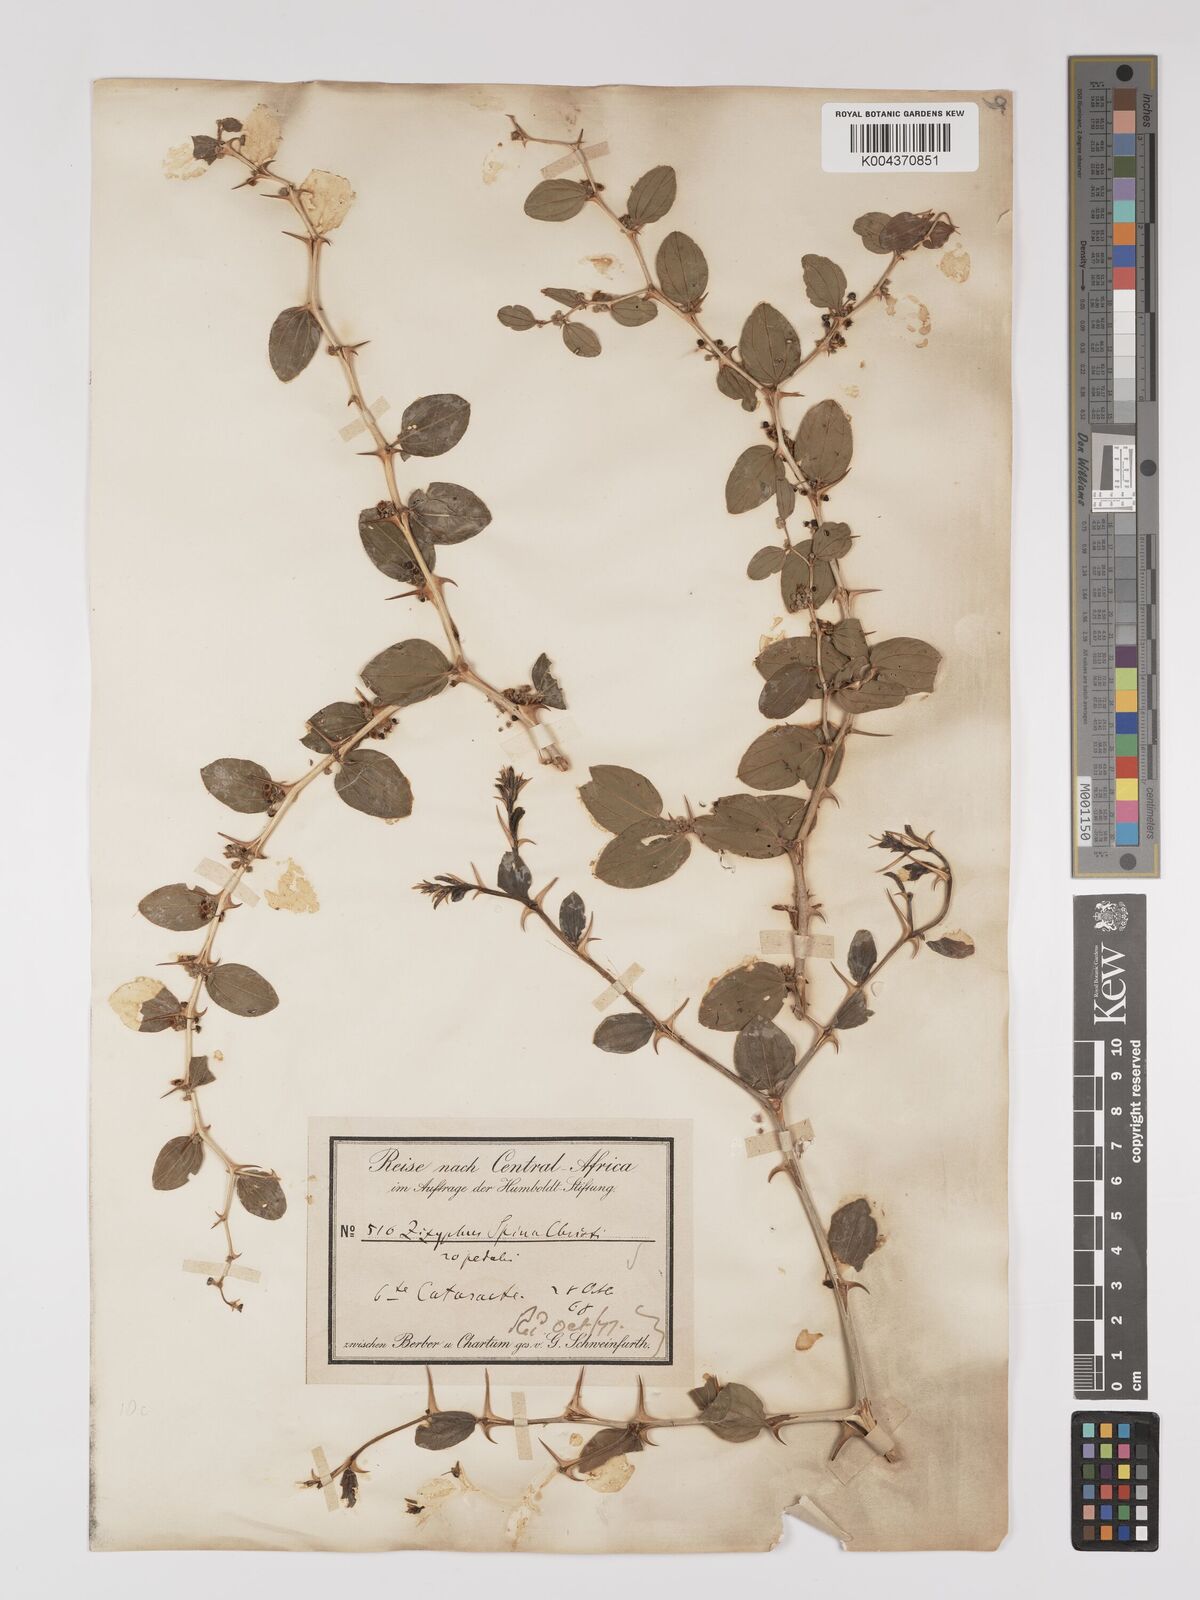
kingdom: Plantae
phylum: Tracheophyta
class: Magnoliopsida
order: Rosales
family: Rhamnaceae
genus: Ziziphus
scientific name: Ziziphus spina-christi
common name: Syrian christ-thorn
